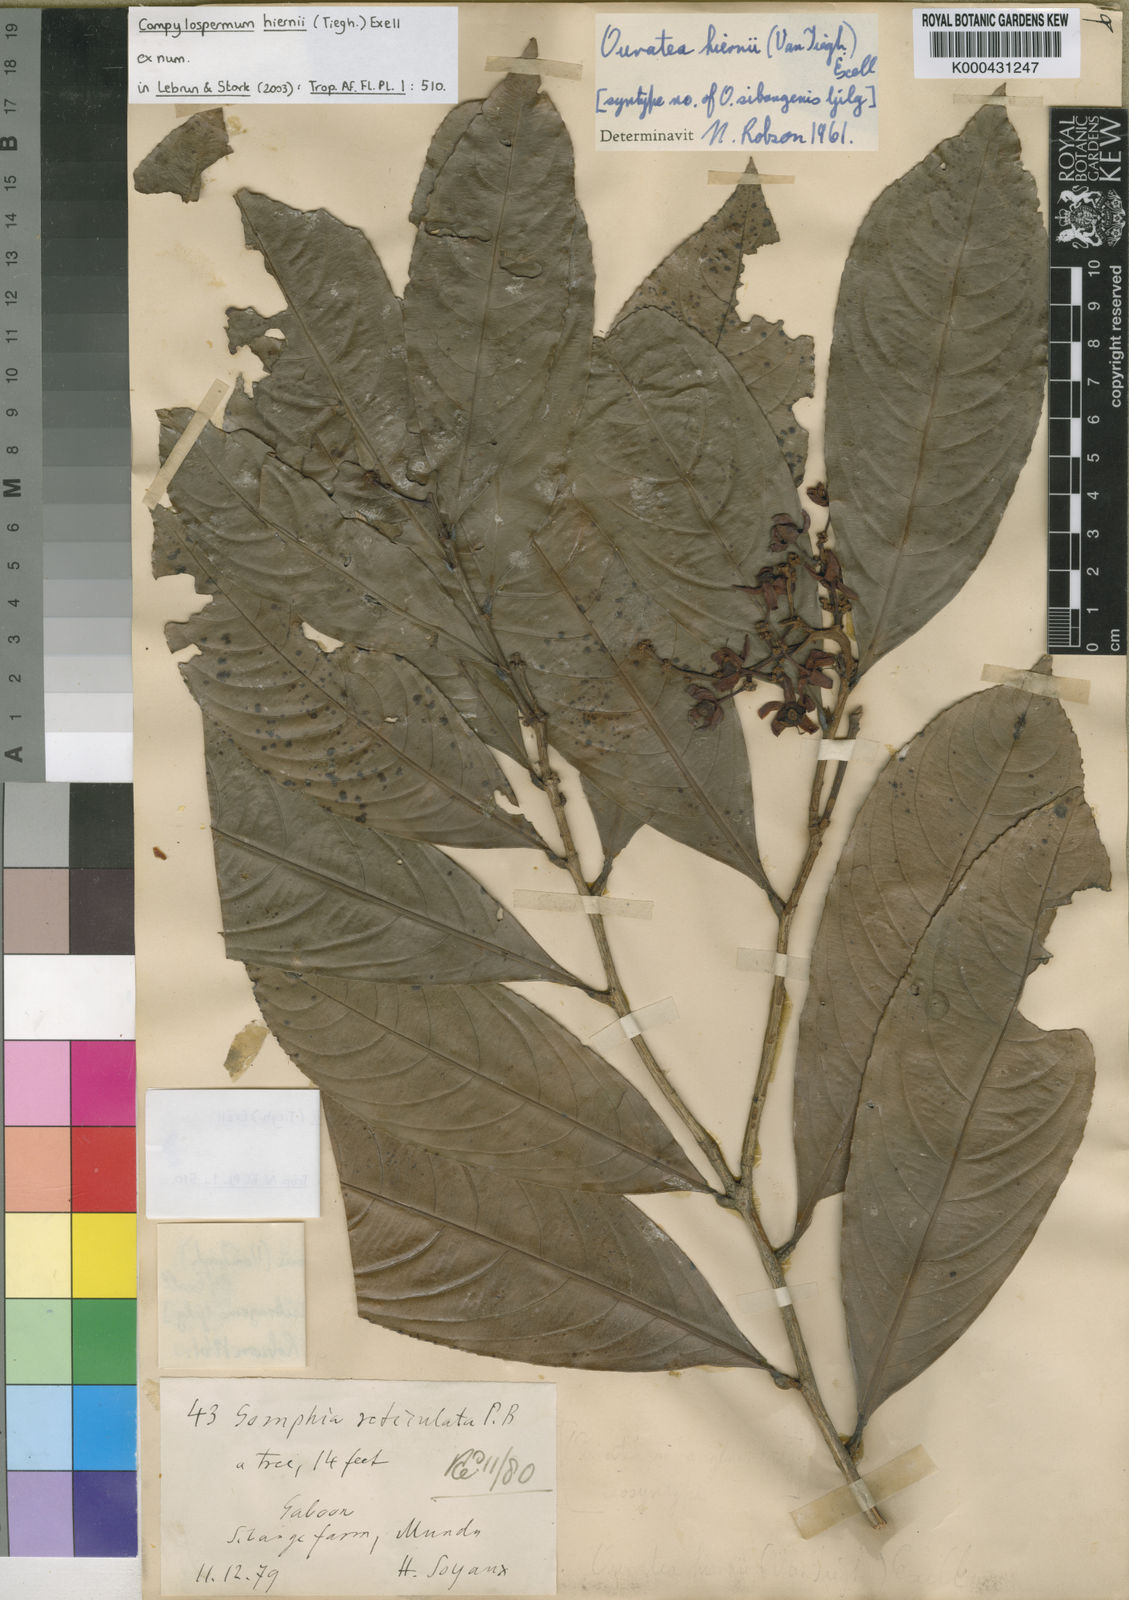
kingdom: Plantae
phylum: Tracheophyta
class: Magnoliopsida
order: Malpighiales
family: Ochnaceae
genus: Campylospermum
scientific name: Campylospermum vogelii
